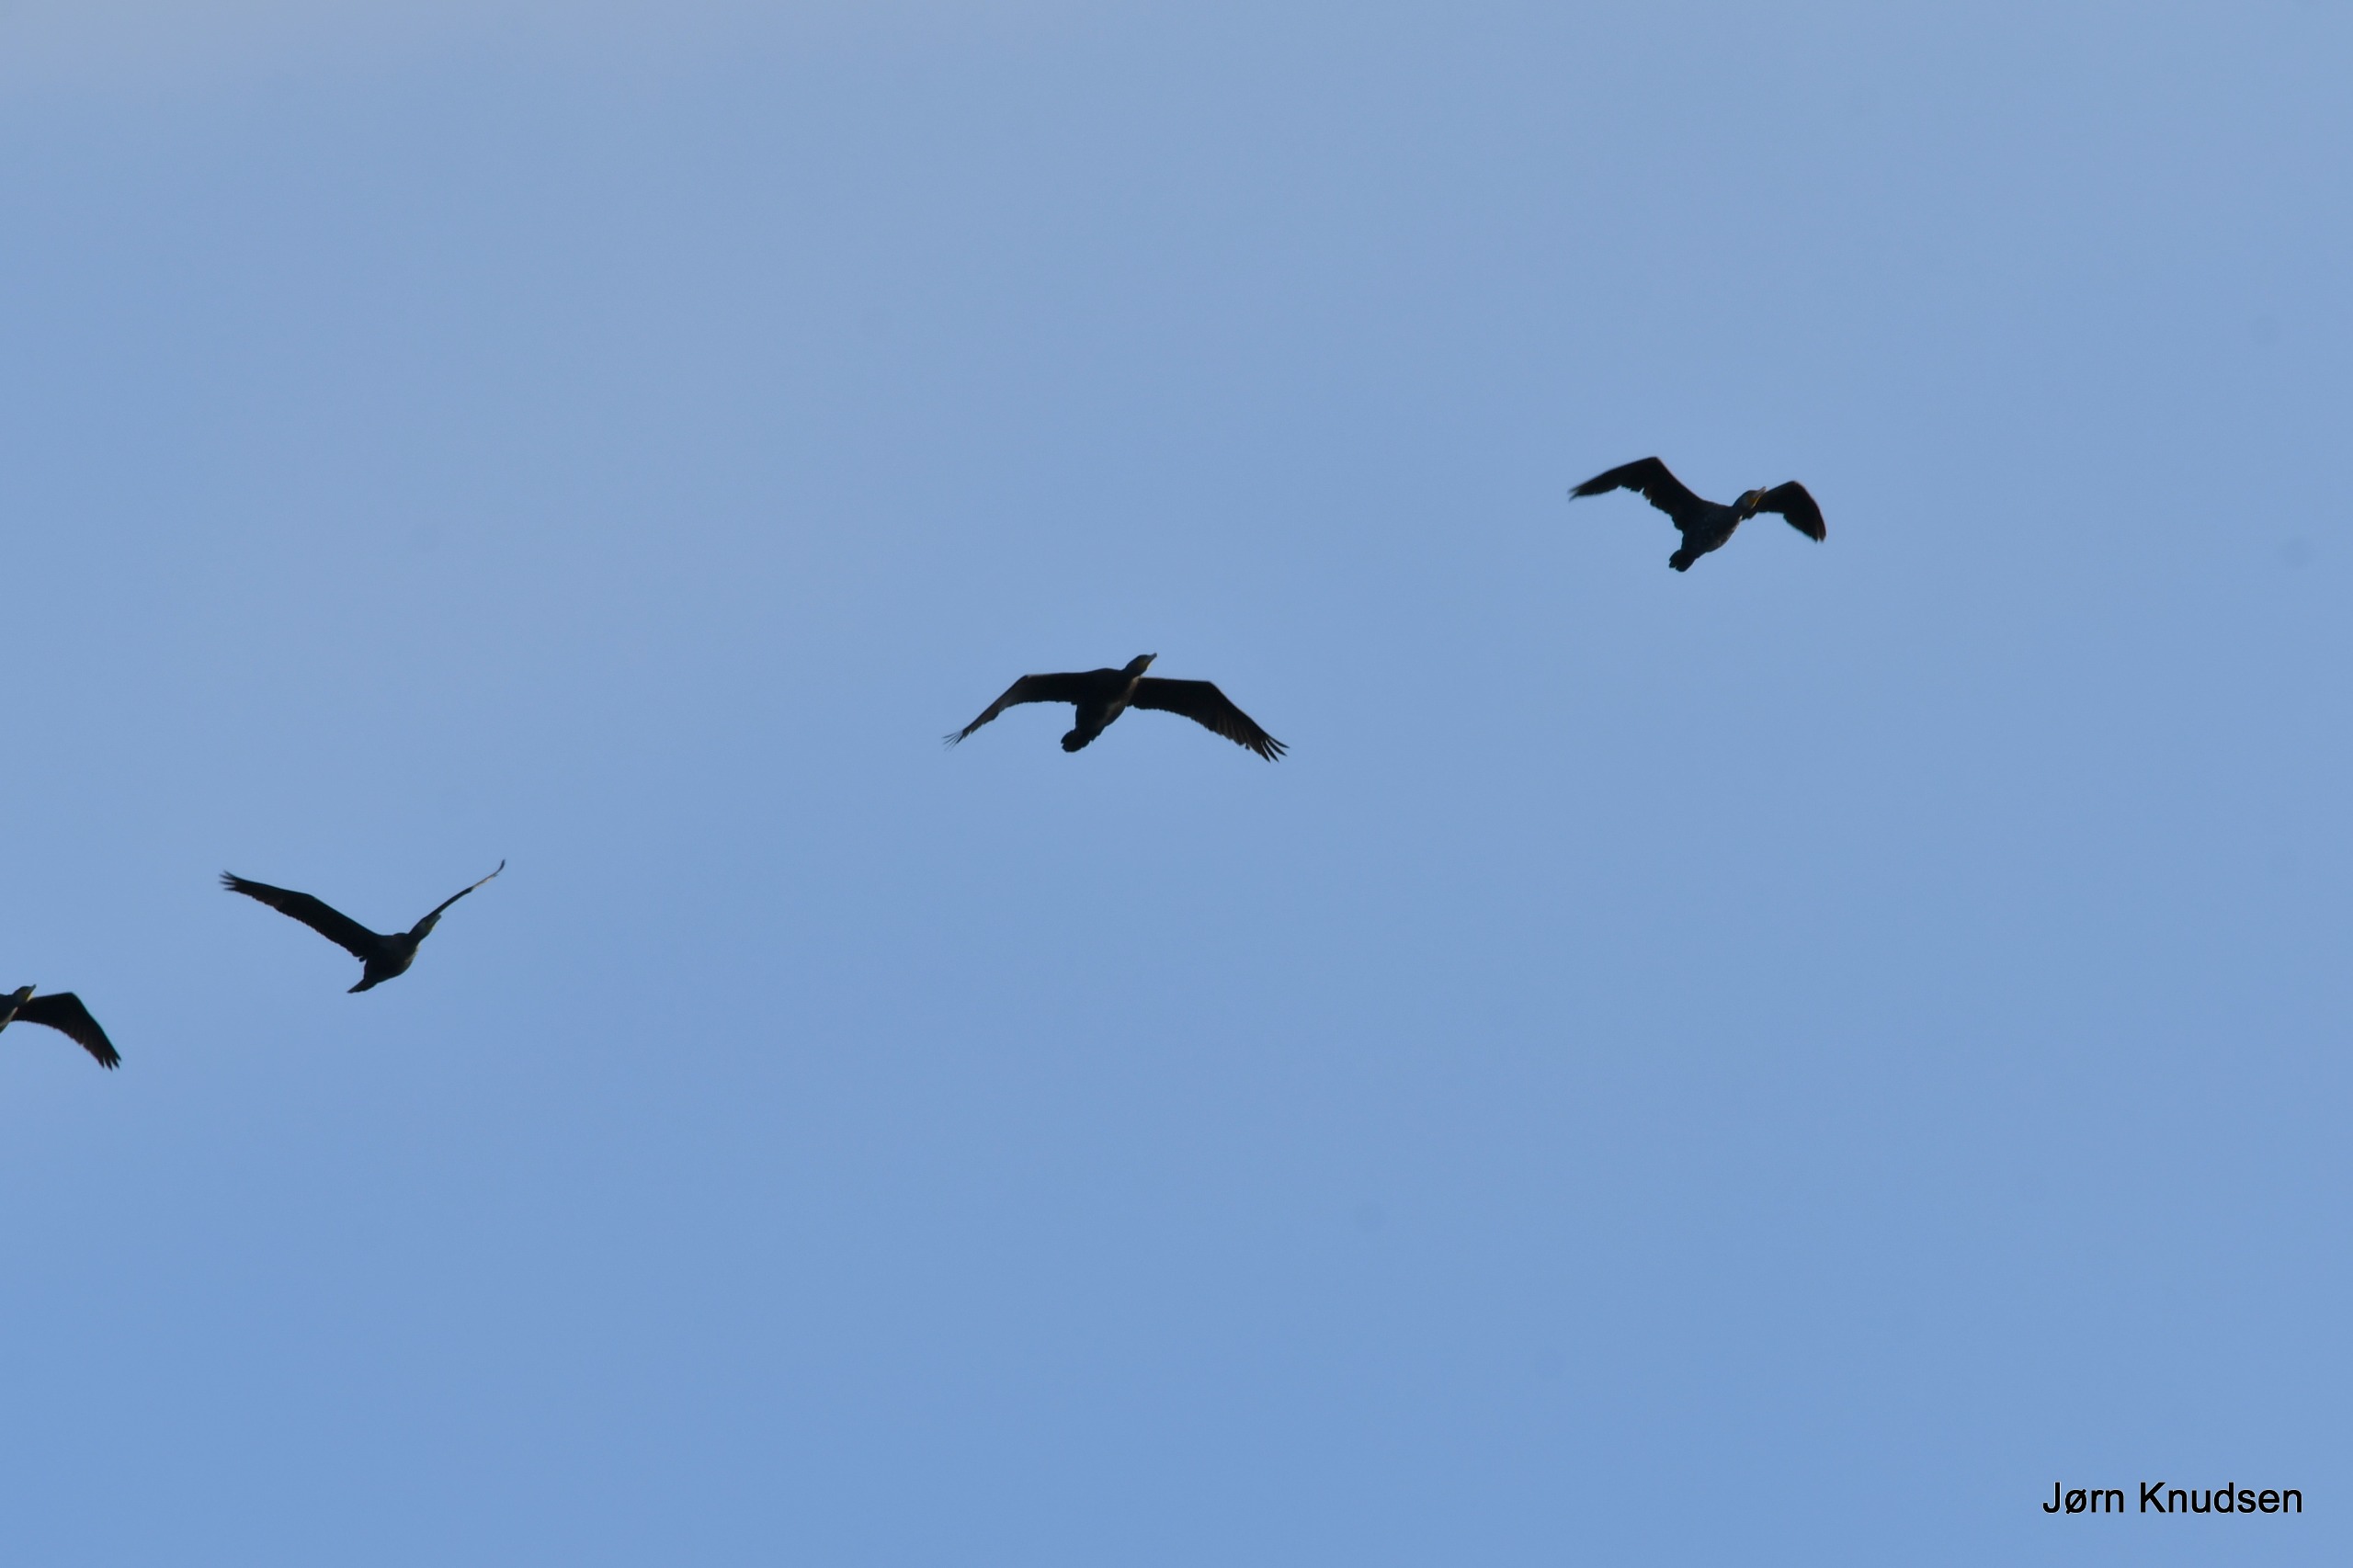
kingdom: Animalia
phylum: Chordata
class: Aves
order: Suliformes
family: Phalacrocoracidae
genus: Phalacrocorax
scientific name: Phalacrocorax carbo
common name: Skarv
